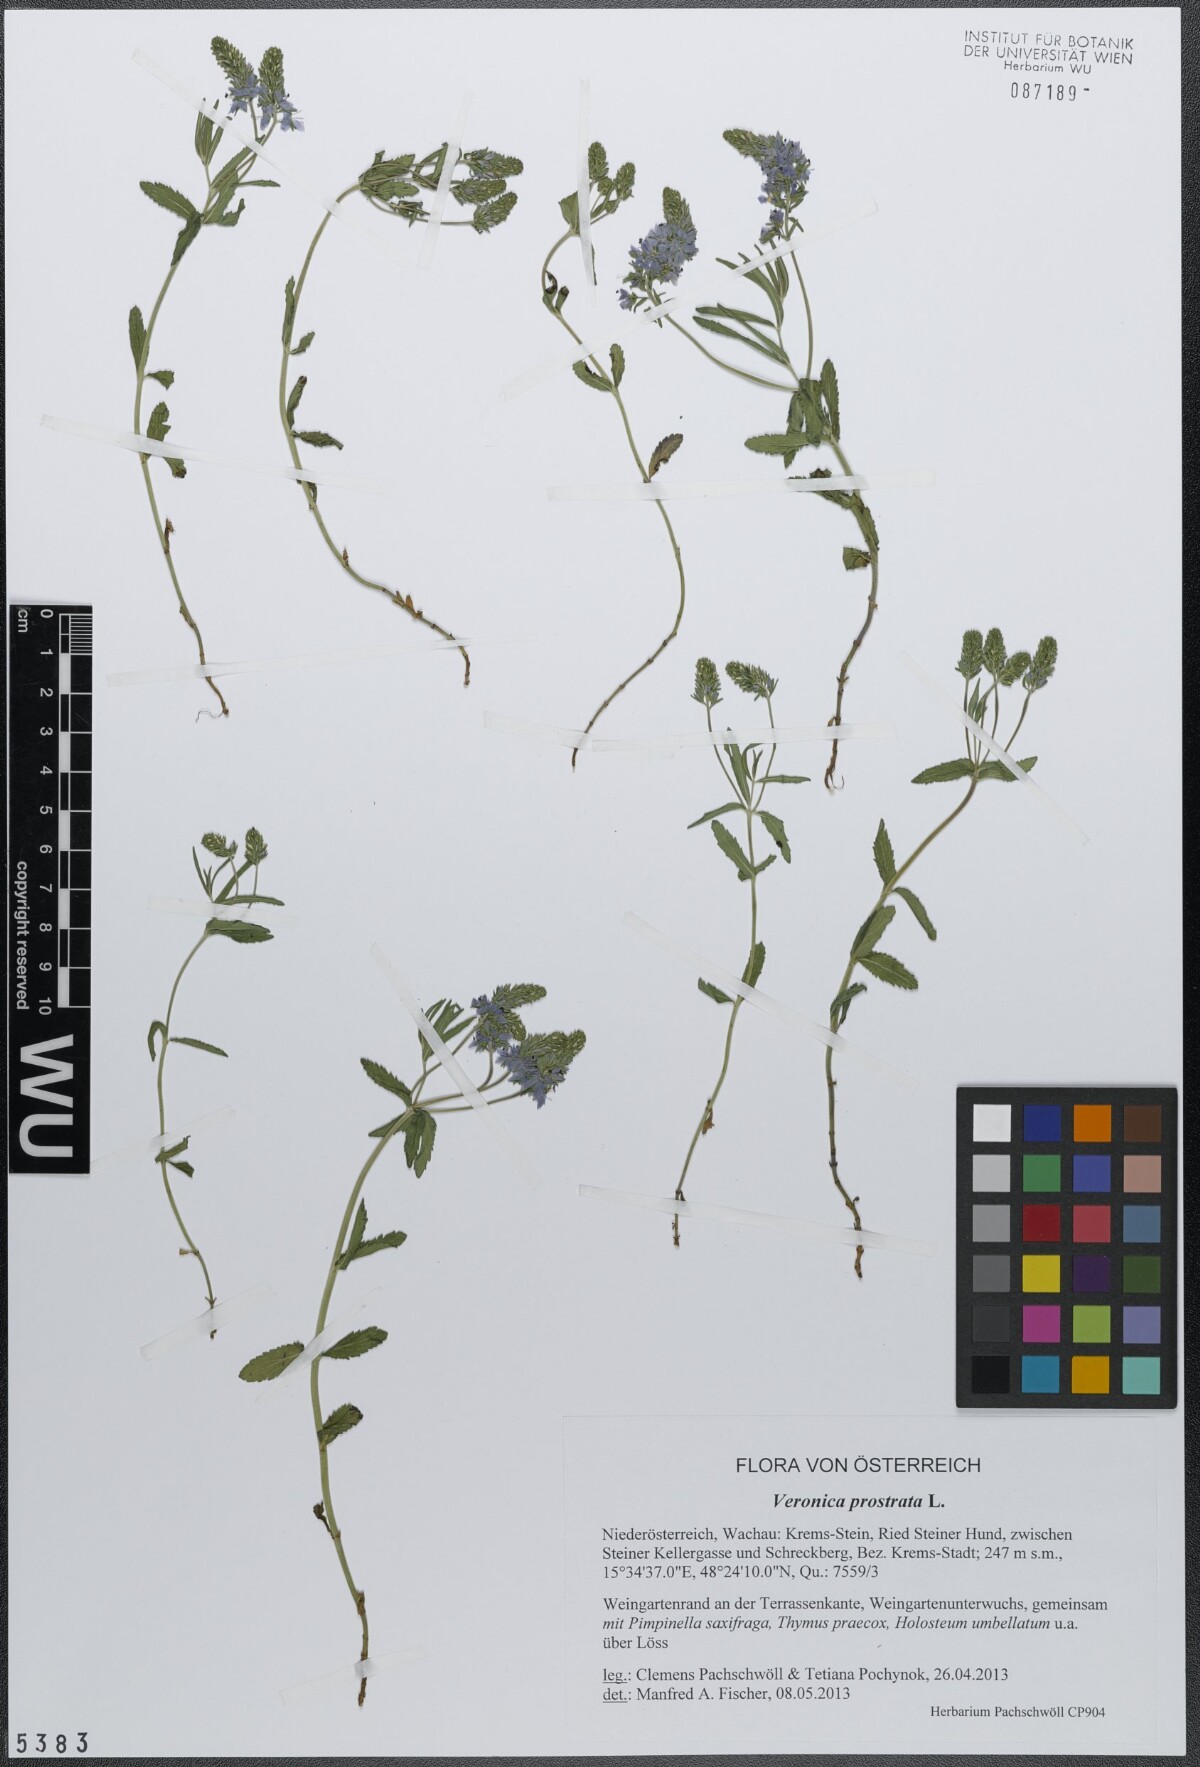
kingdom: Plantae
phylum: Tracheophyta
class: Magnoliopsida
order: Lamiales
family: Plantaginaceae
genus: Veronica
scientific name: Veronica prostrata
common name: Prostrate speedwell
